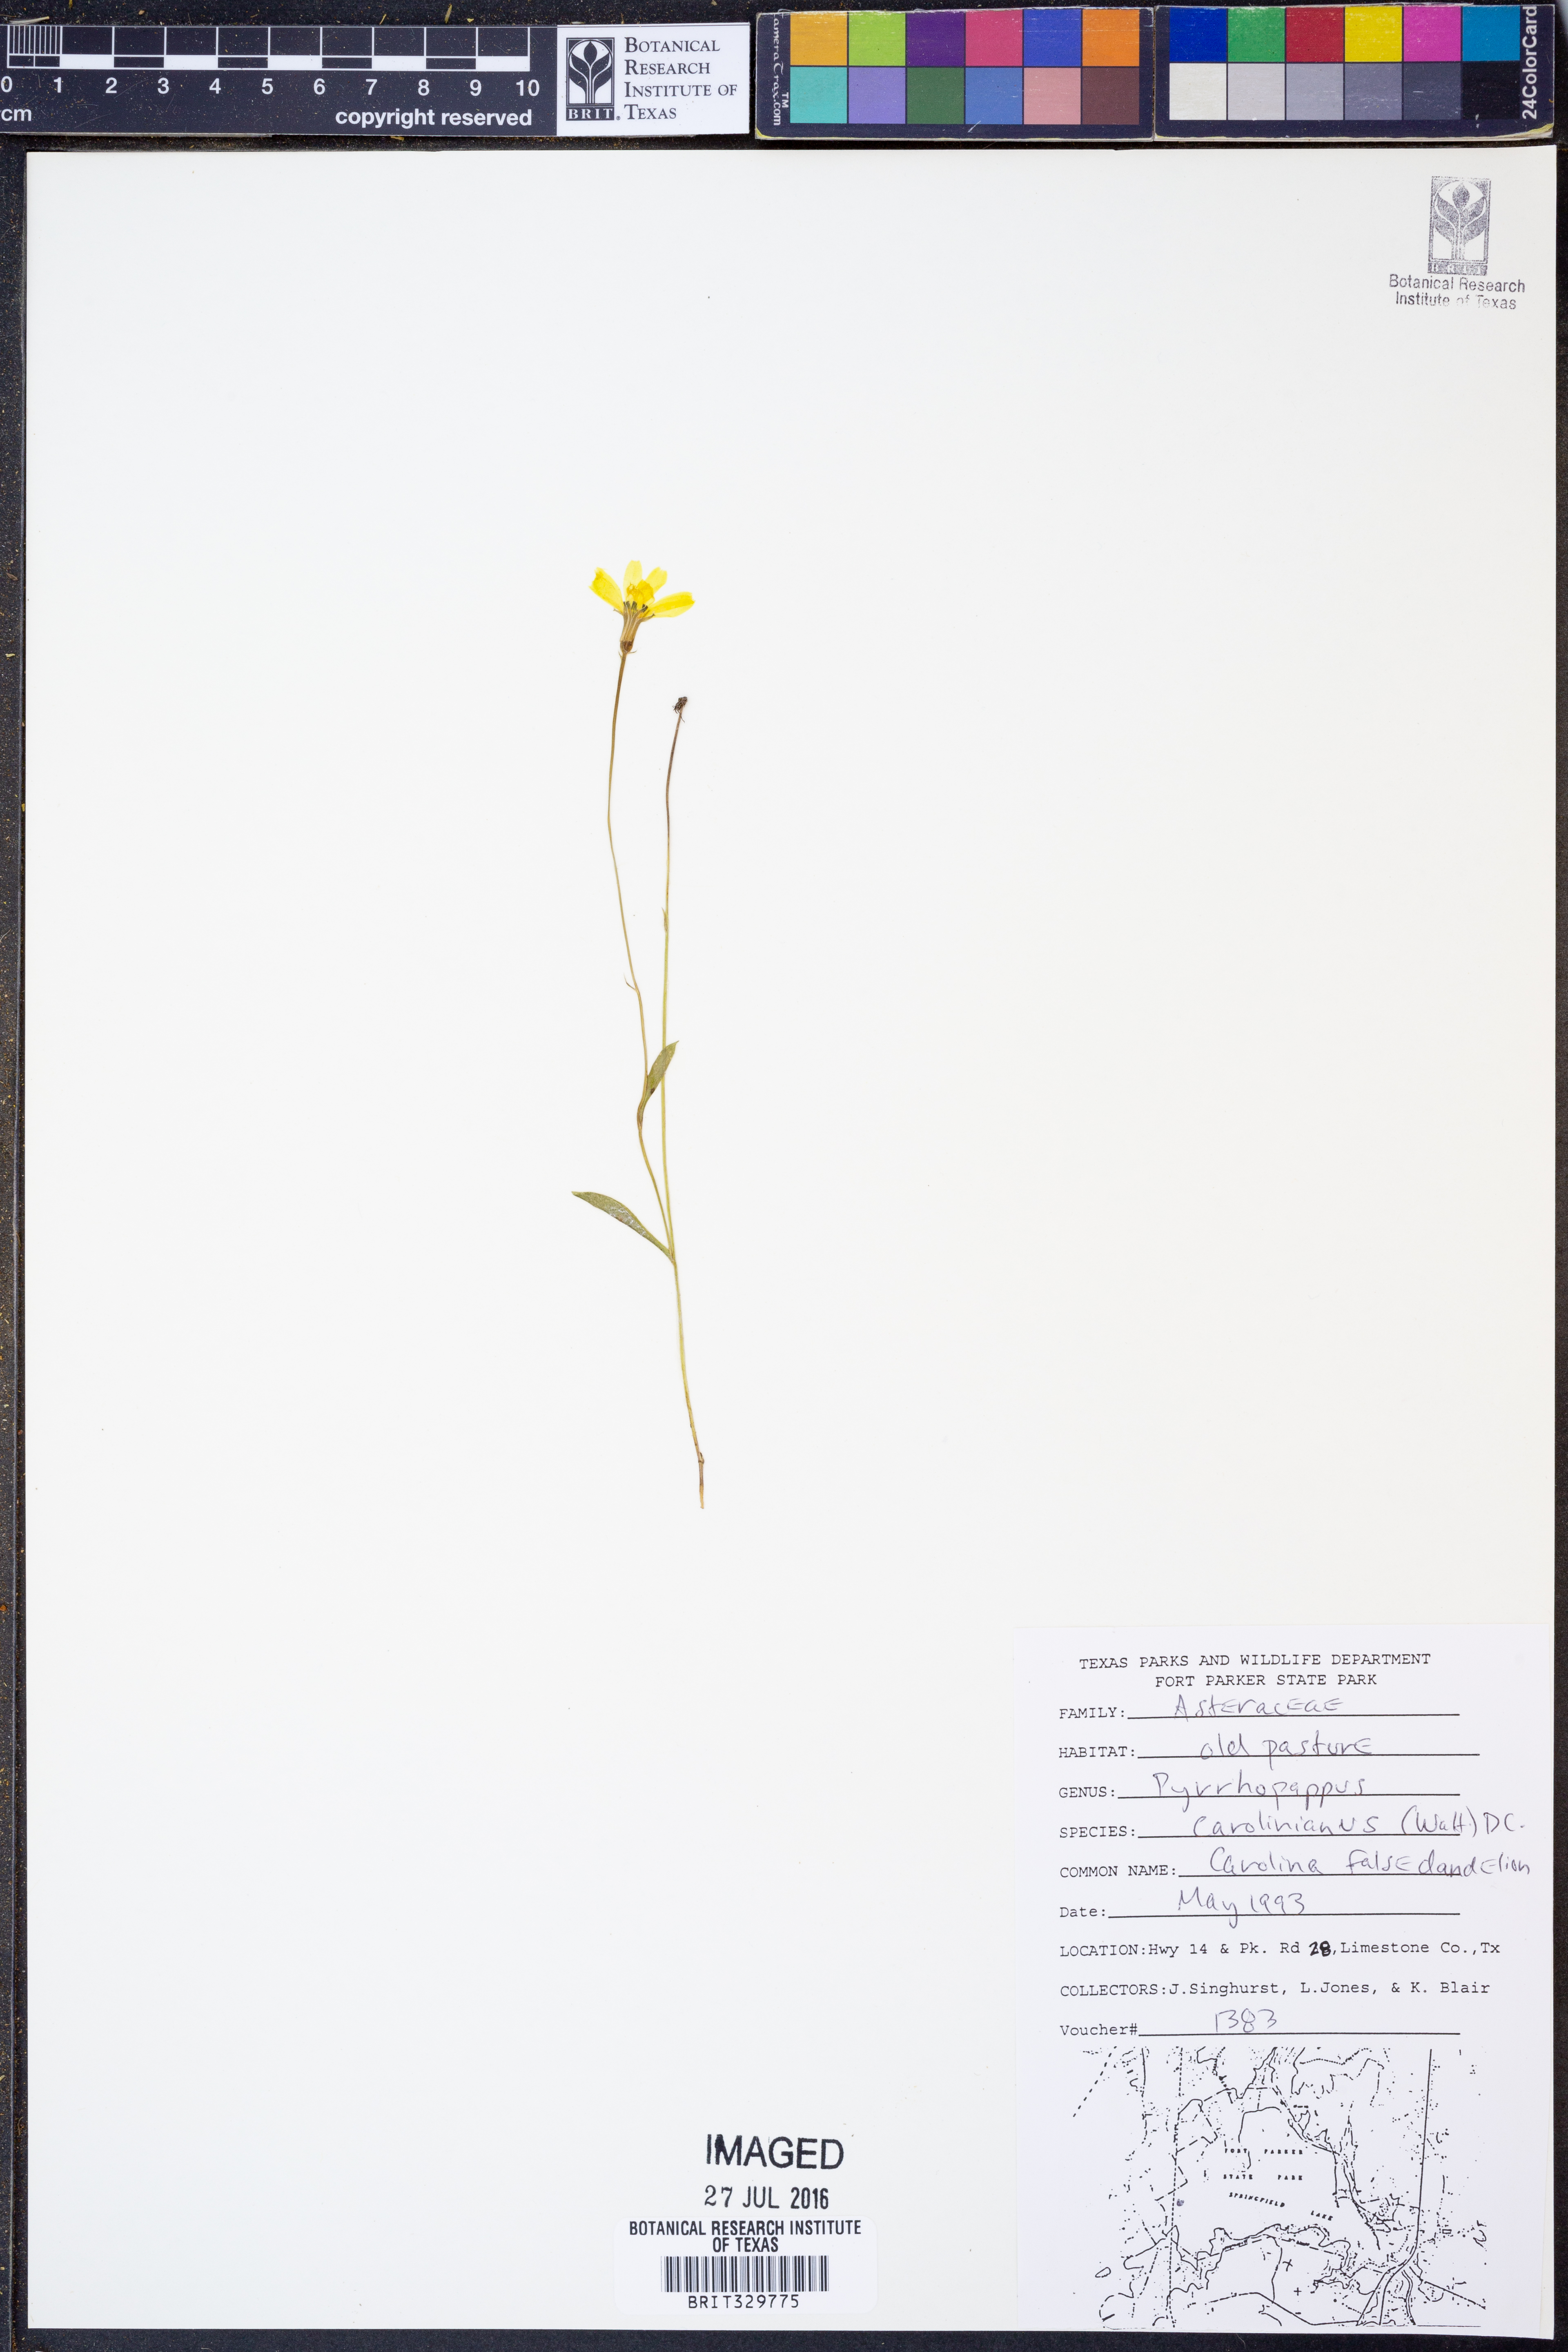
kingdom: Plantae
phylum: Tracheophyta
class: Magnoliopsida
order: Asterales
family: Asteraceae
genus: Pyrrhopappus
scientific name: Pyrrhopappus carolinianus
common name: Carolina desert-chicory
